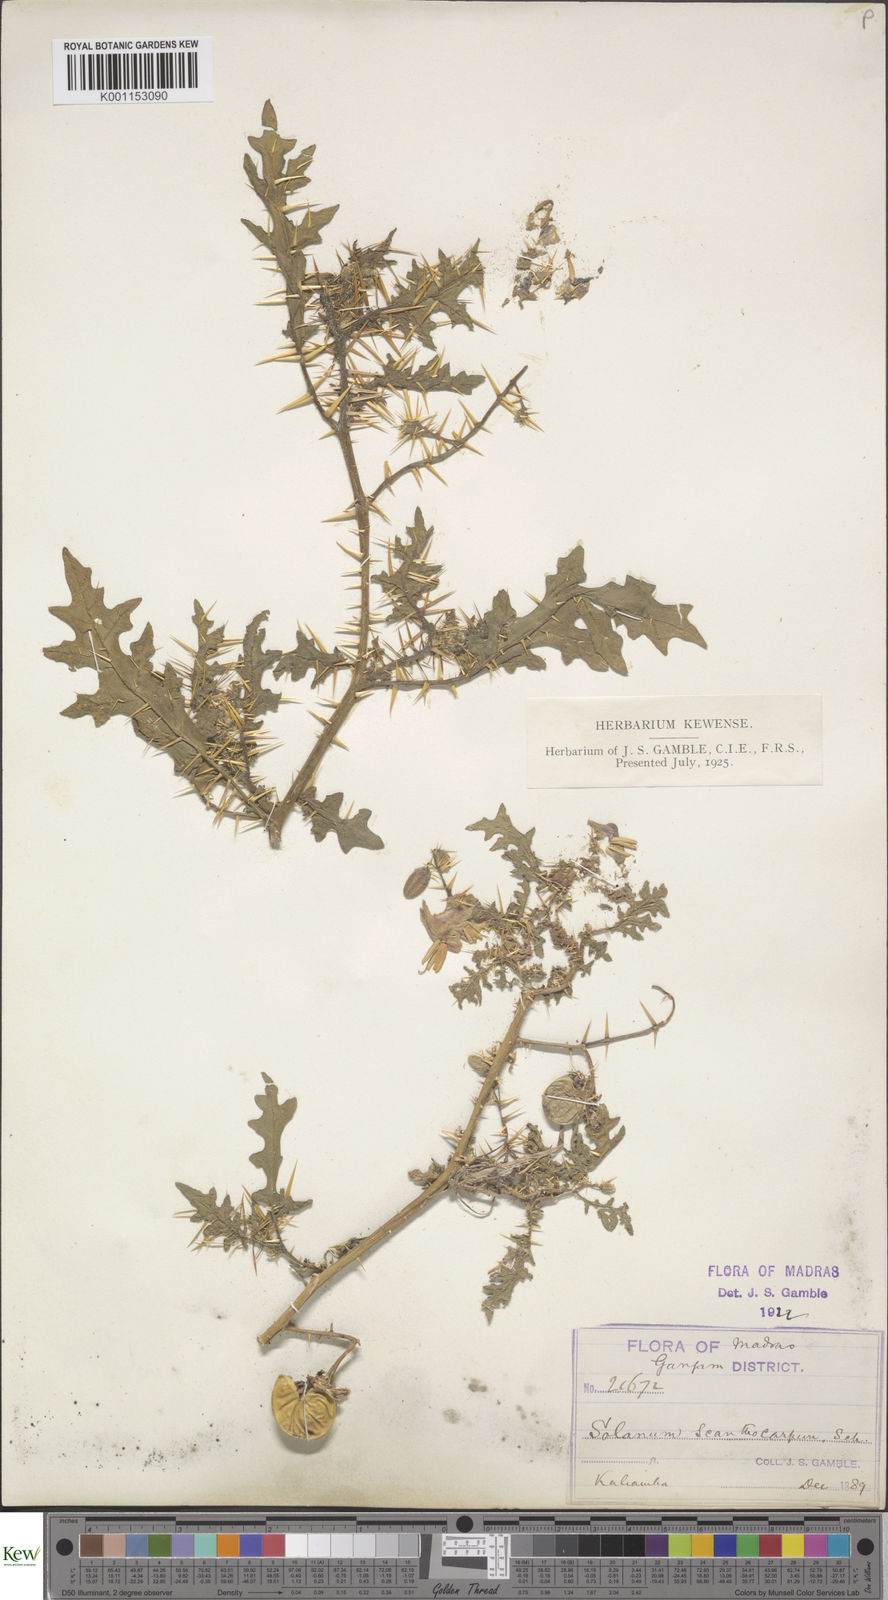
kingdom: Plantae
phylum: Tracheophyta
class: Magnoliopsida
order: Solanales
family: Solanaceae
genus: Solanum
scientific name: Solanum virginianum
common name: Surattense nightshade
